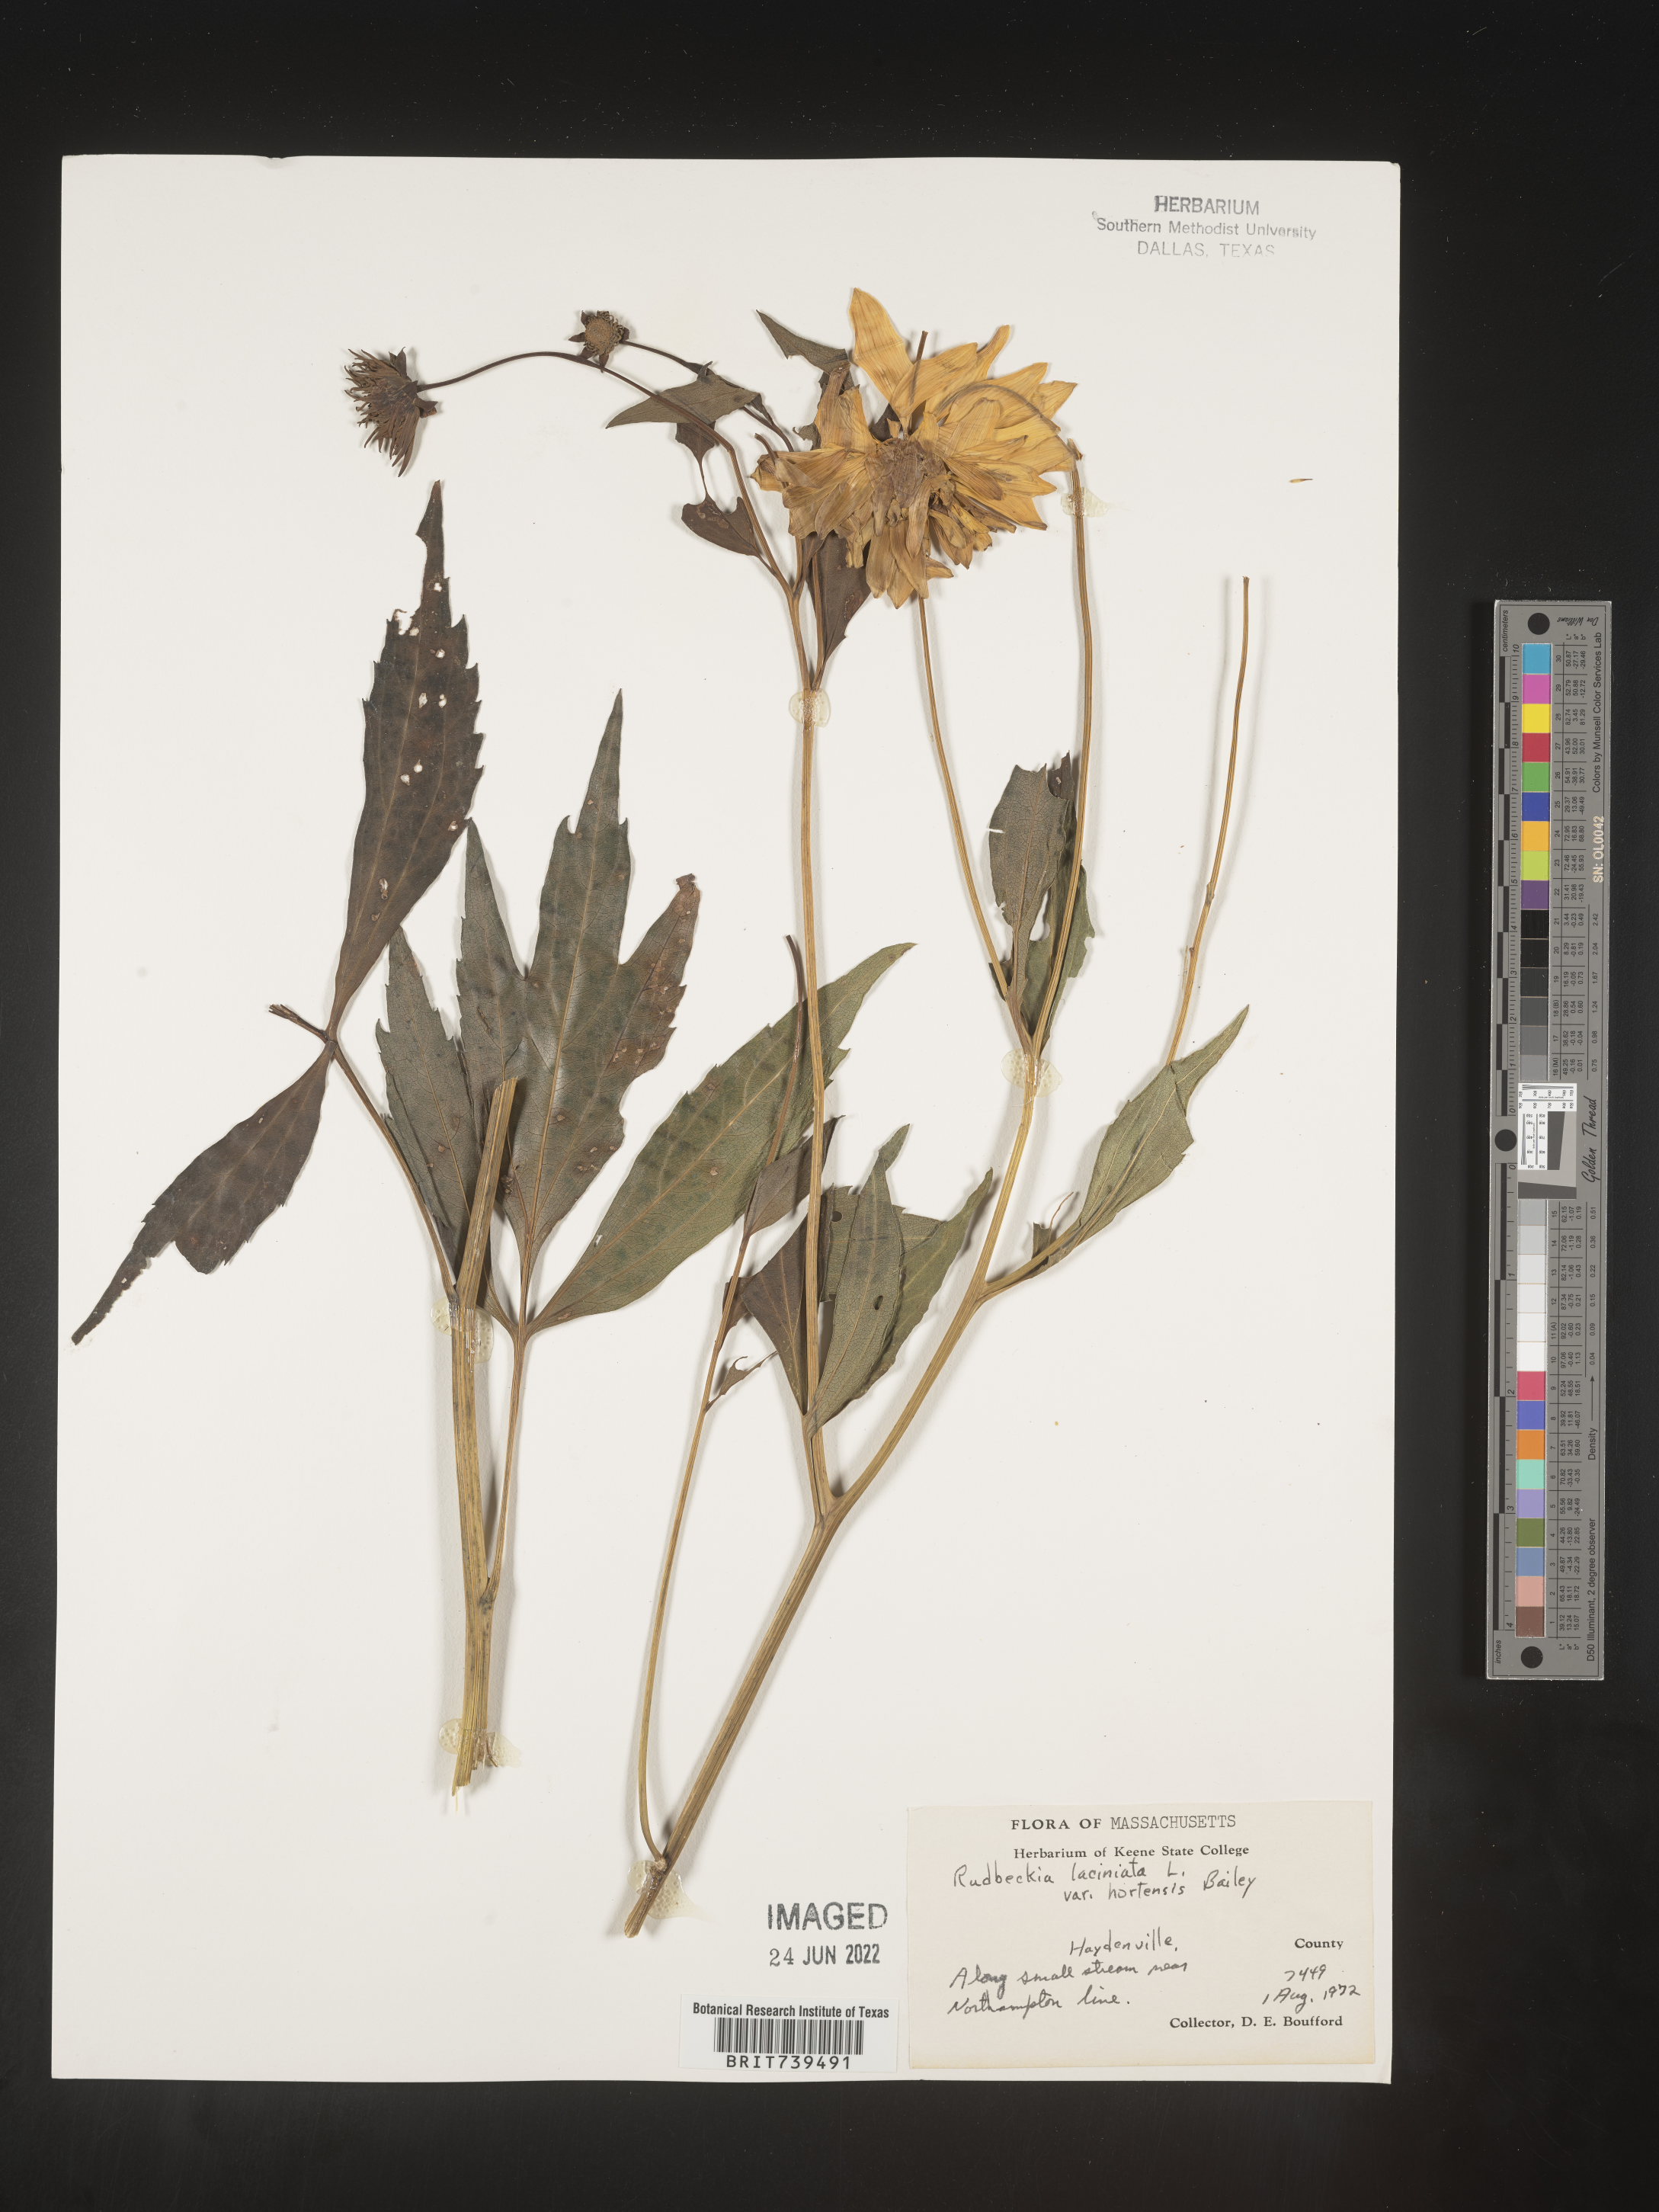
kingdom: Plantae
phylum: Tracheophyta
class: Magnoliopsida
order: Asterales
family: Asteraceae
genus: Rudbeckia
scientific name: Rudbeckia laciniata
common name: Coneflower
